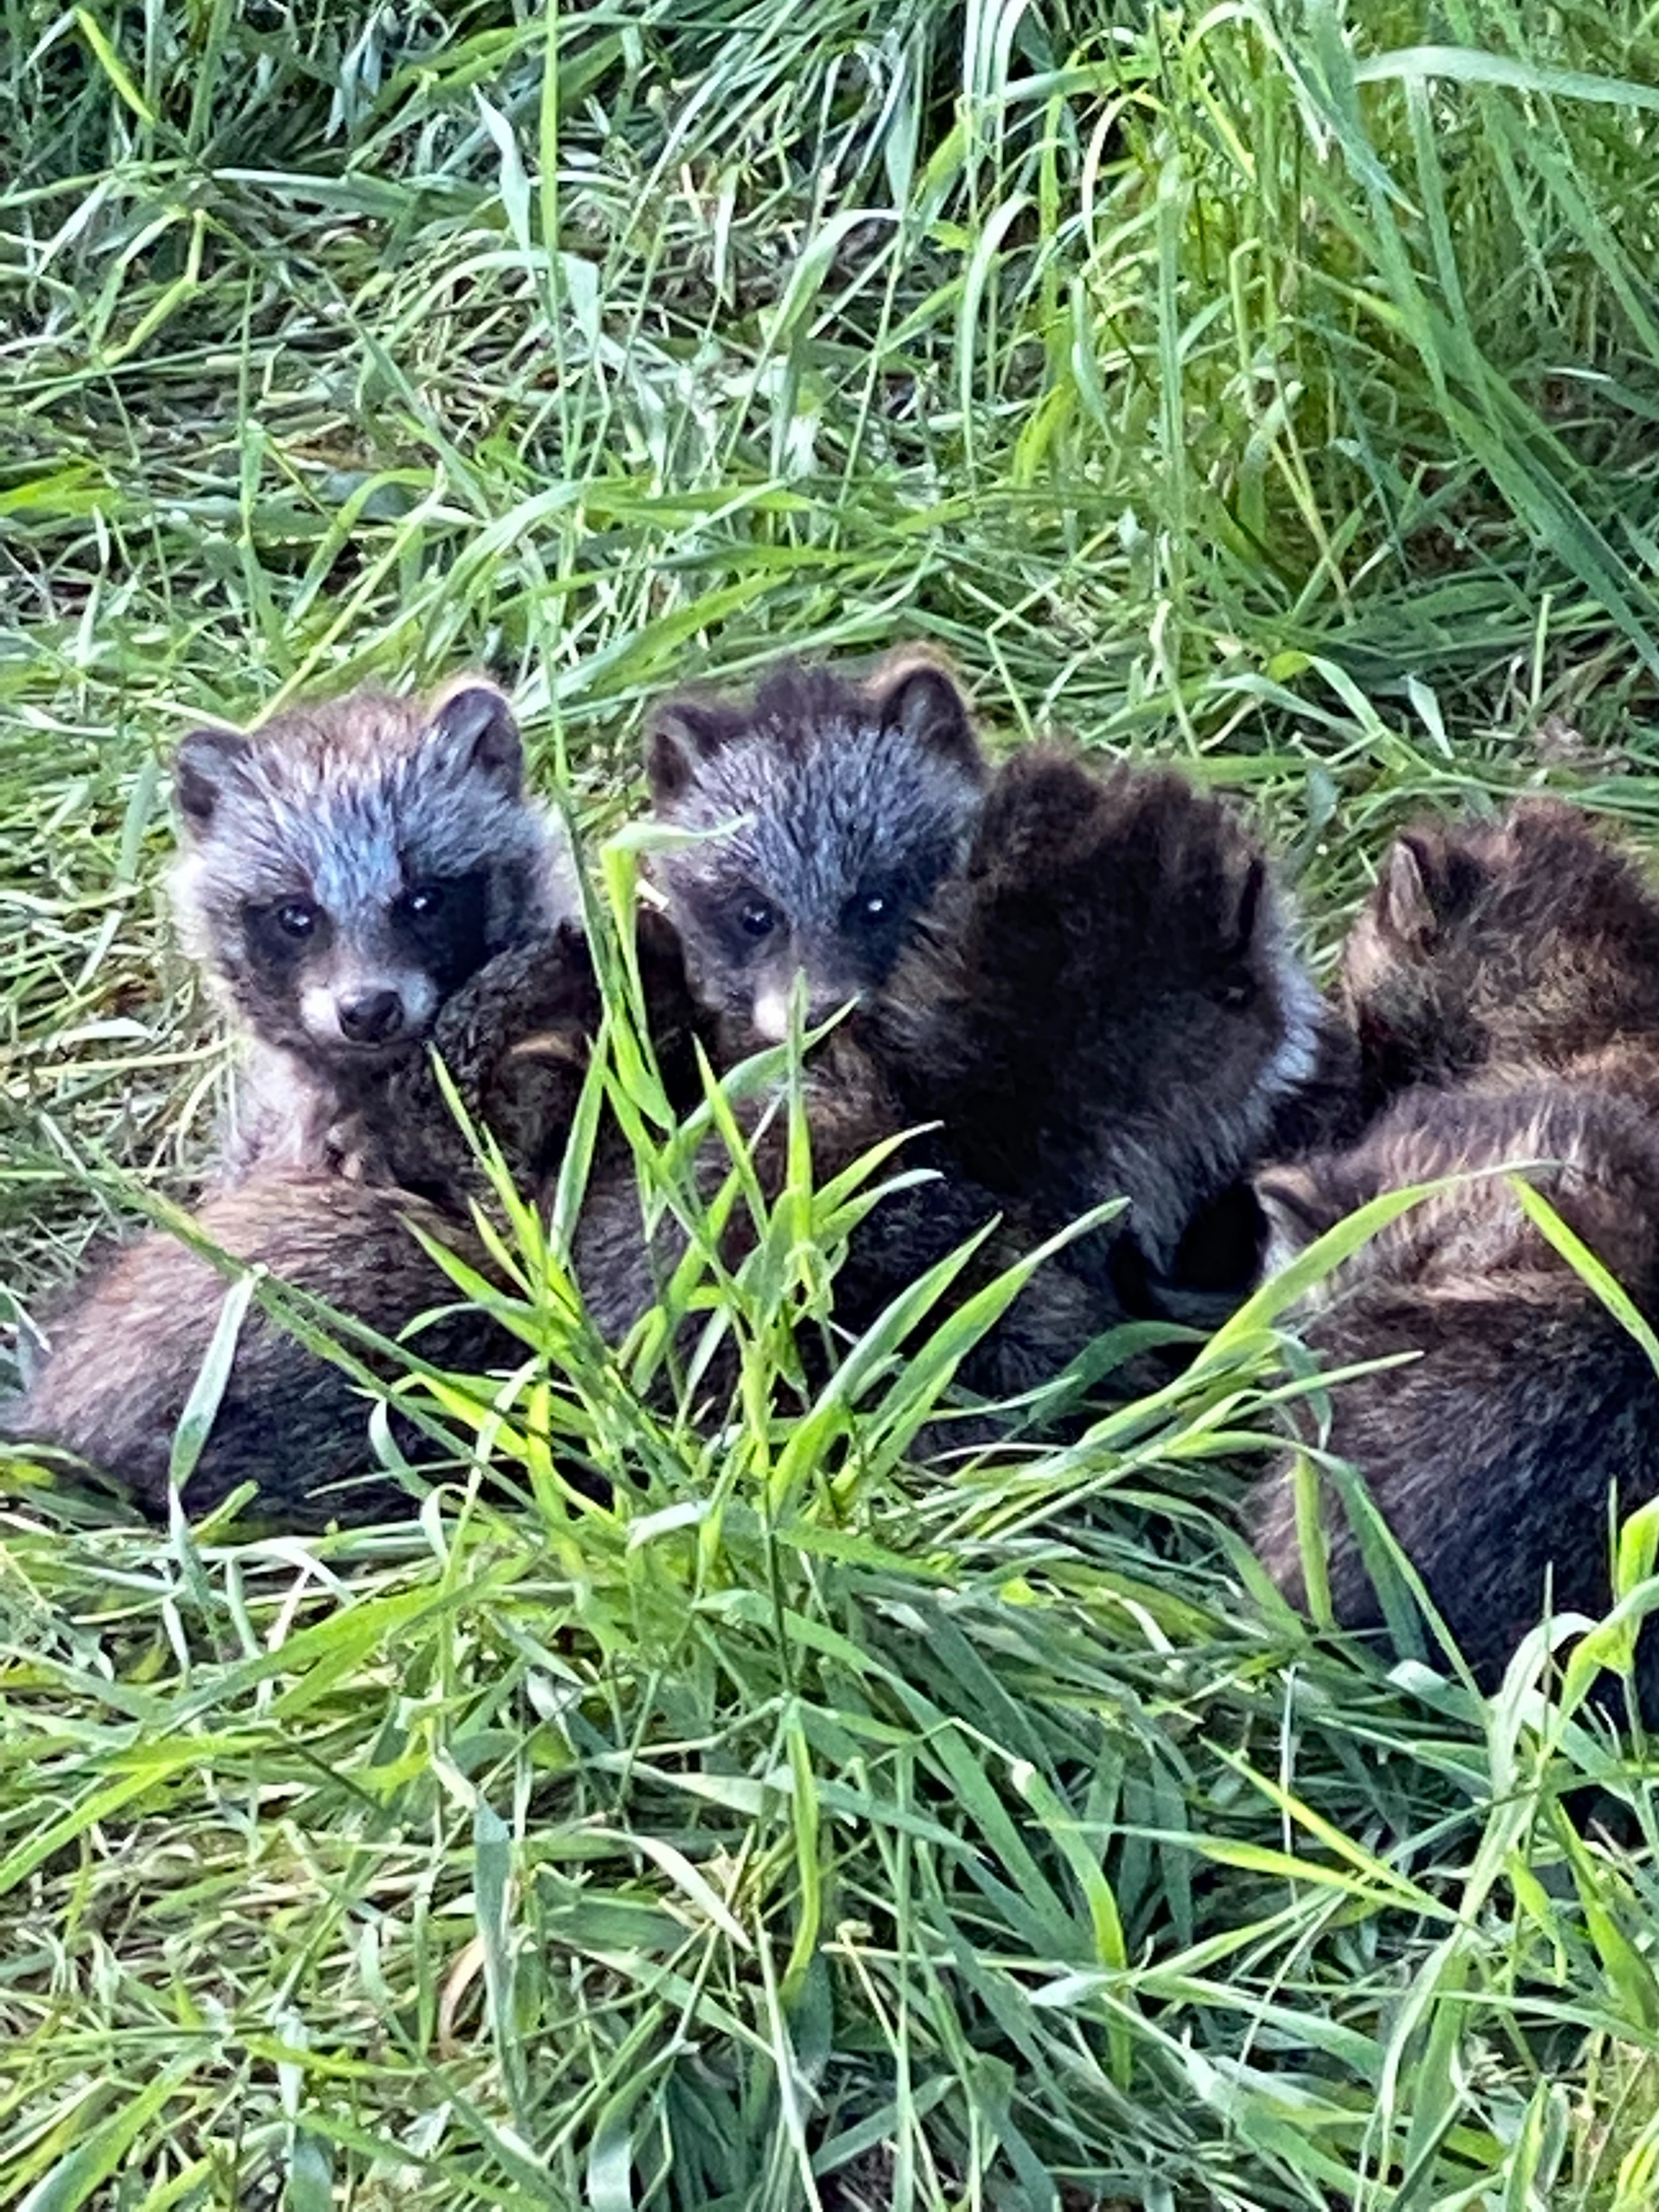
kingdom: Animalia
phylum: Chordata
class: Mammalia
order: Carnivora
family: Canidae
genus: Nyctereutes
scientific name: Nyctereutes procyonoides
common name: Mårhund
